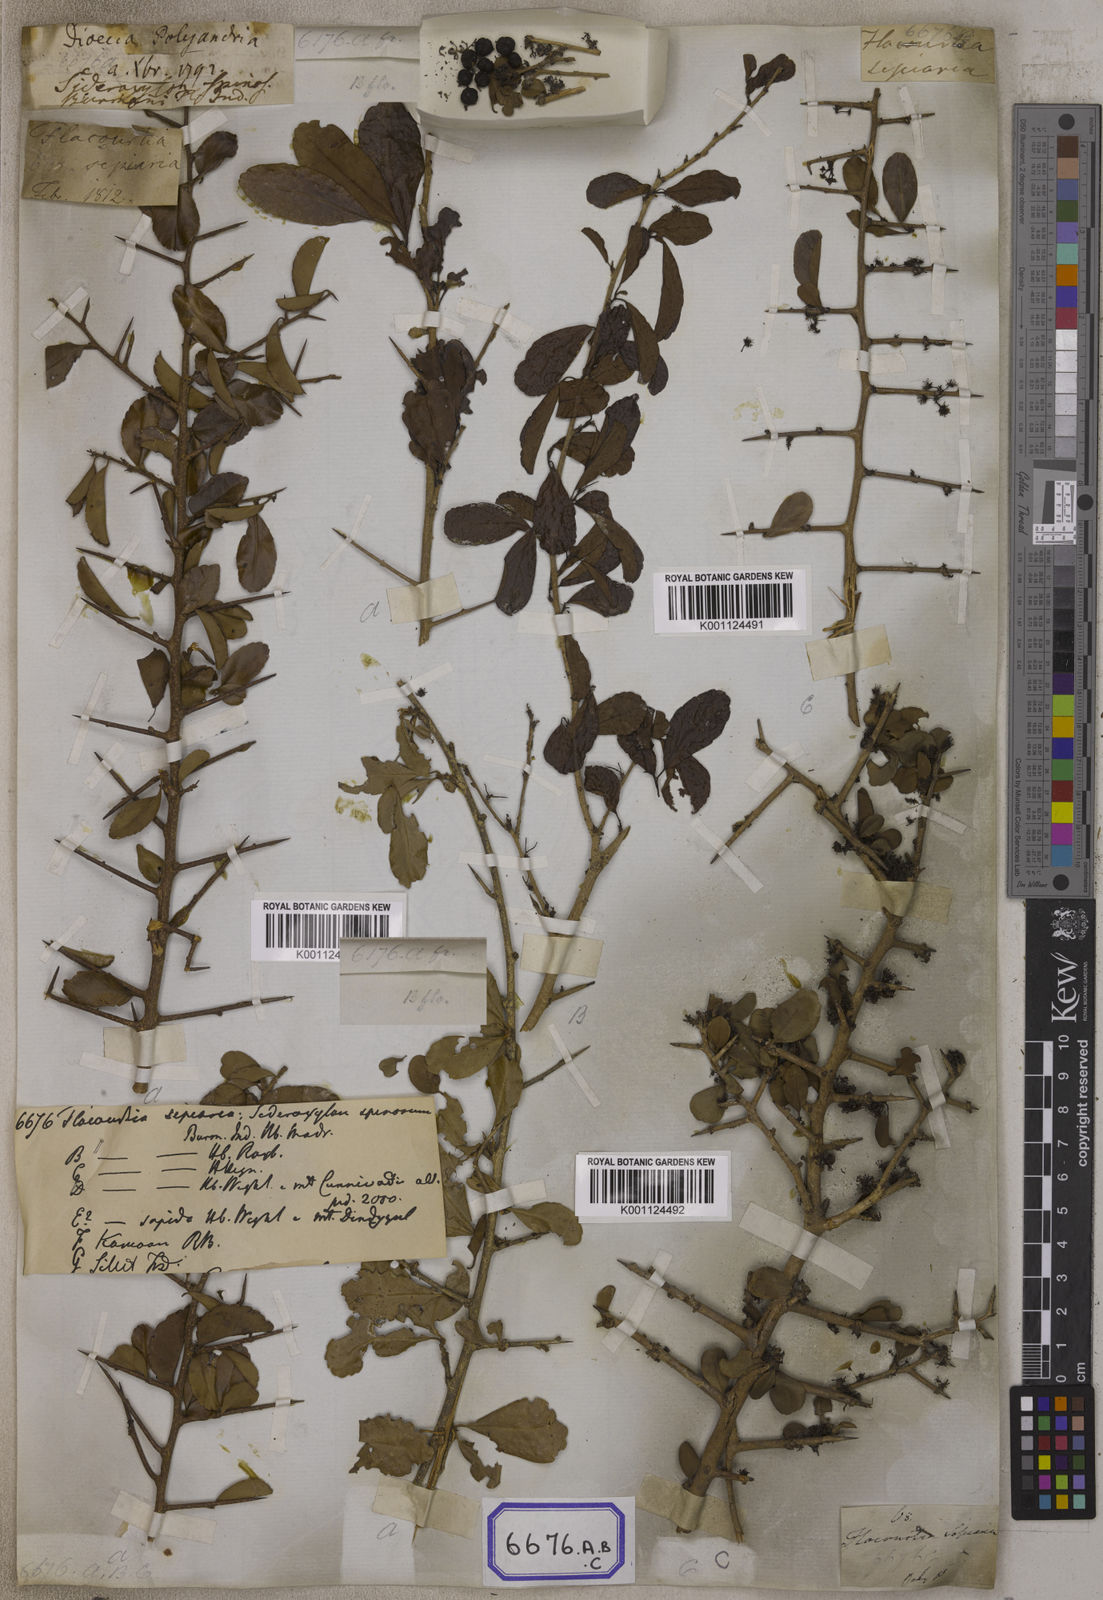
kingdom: Plantae
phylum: Tracheophyta
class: Magnoliopsida
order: Malpighiales
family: Salicaceae
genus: Flacourtia
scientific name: Flacourtia indica
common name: Governor's plum
